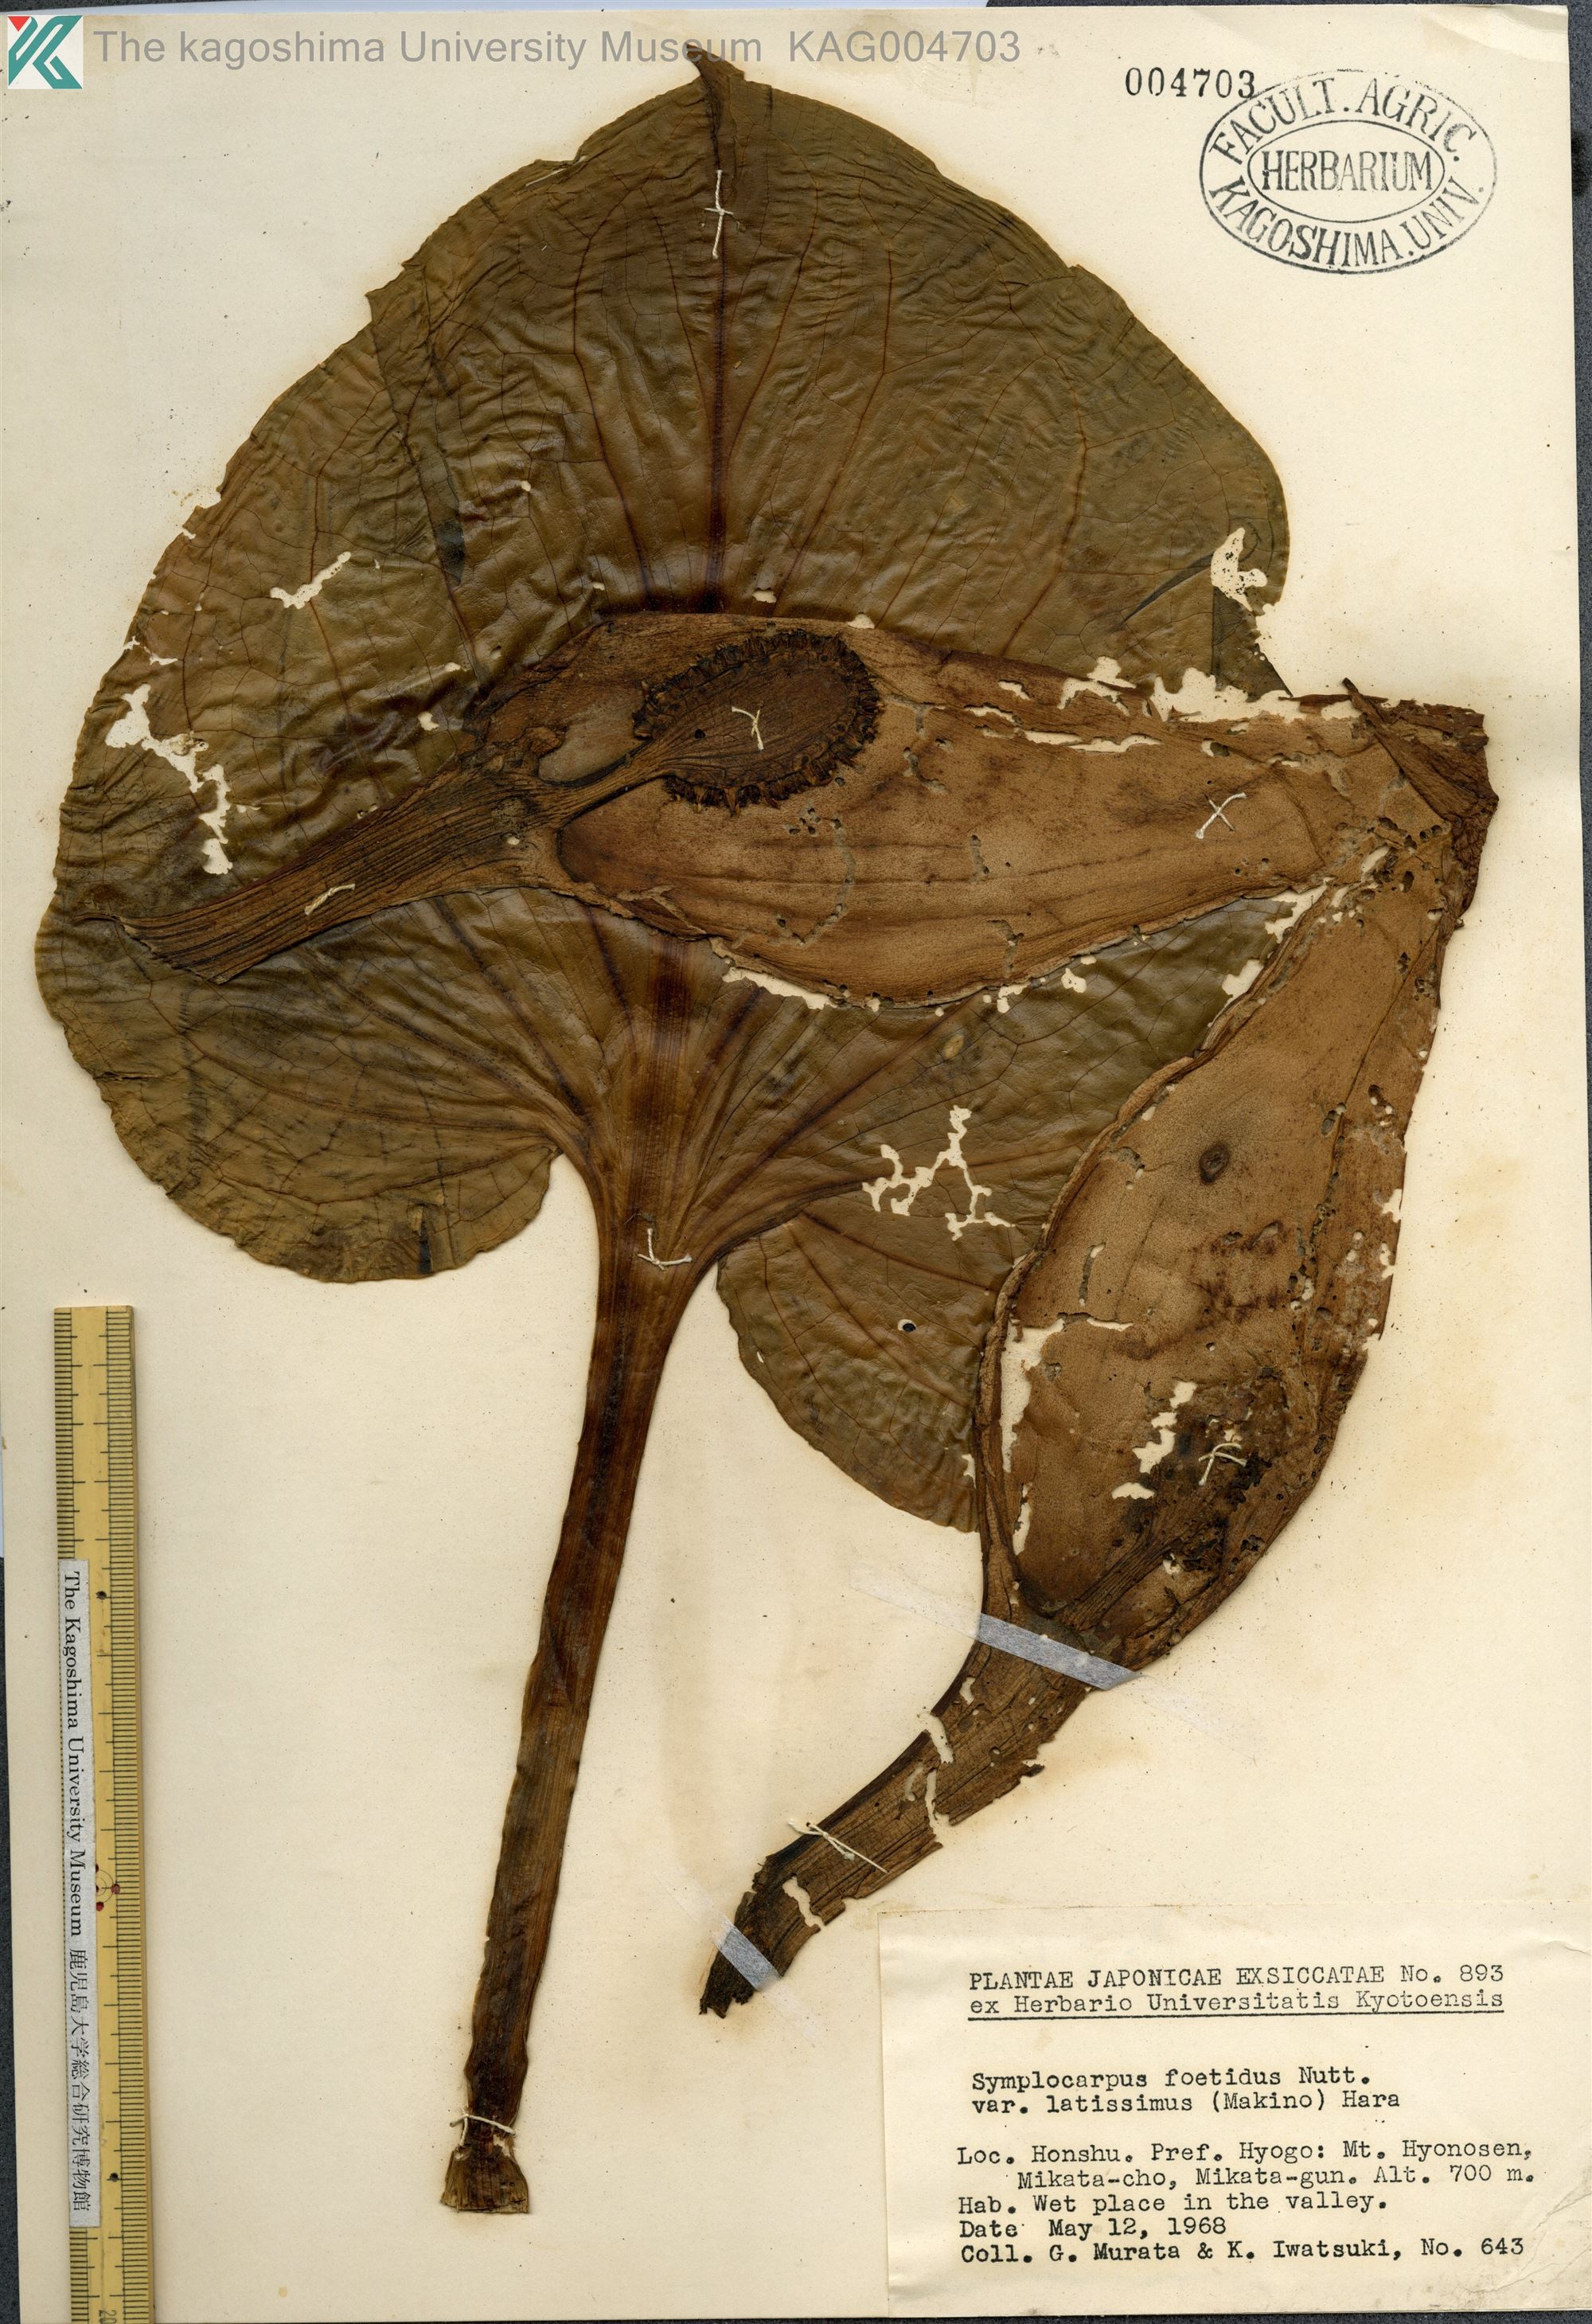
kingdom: Plantae
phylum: Tracheophyta
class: Liliopsida
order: Alismatales
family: Araceae
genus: Symplocarpus
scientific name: Symplocarpus renifolius
